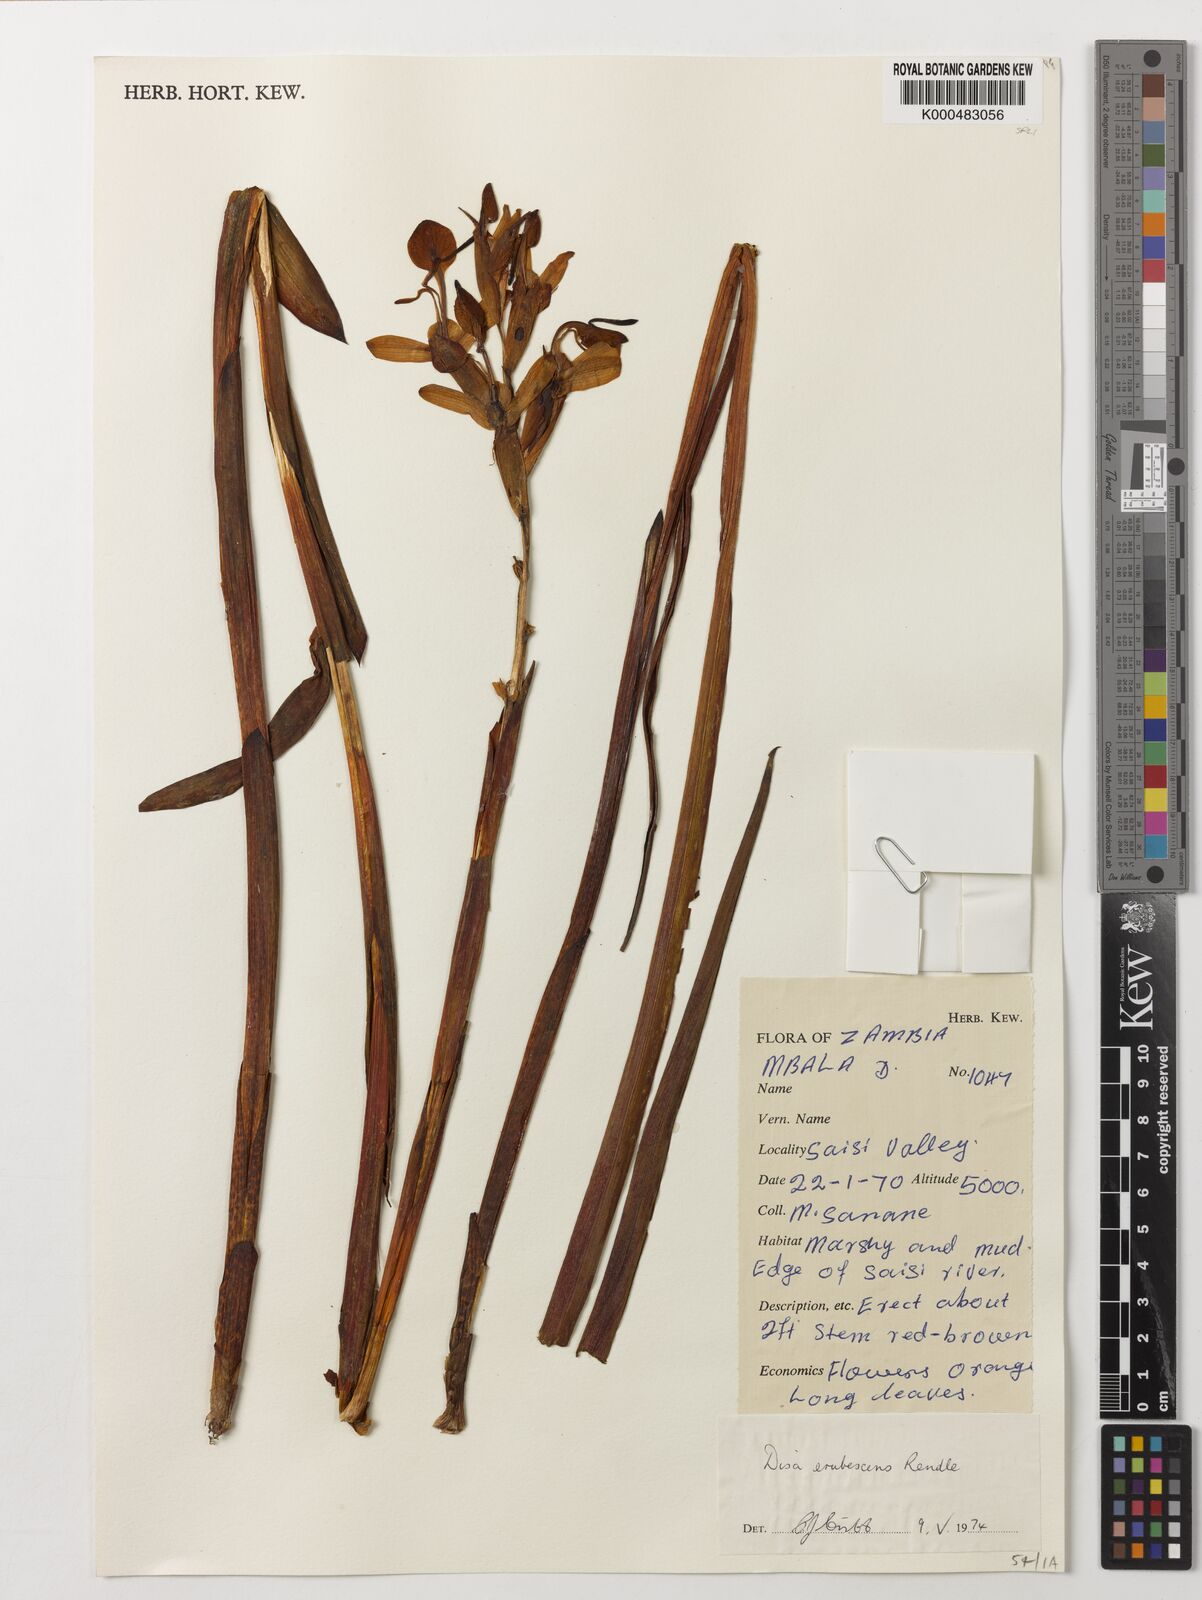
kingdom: Plantae
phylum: Tracheophyta
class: Liliopsida
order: Asparagales
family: Orchidaceae
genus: Disa
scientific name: Disa erubescens
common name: The rose disa
